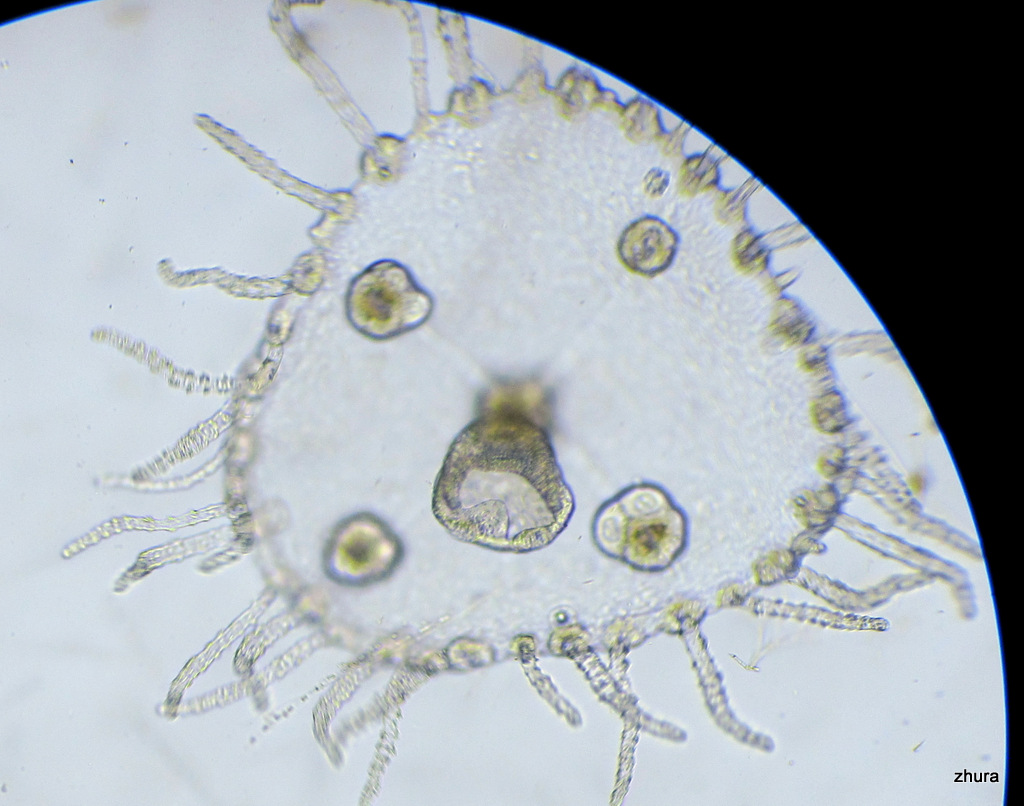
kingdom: Animalia
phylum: Cnidaria
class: Hydrozoa
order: Leptothecata
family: Campanulariidae
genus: Obelia
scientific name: Obelia longissima
